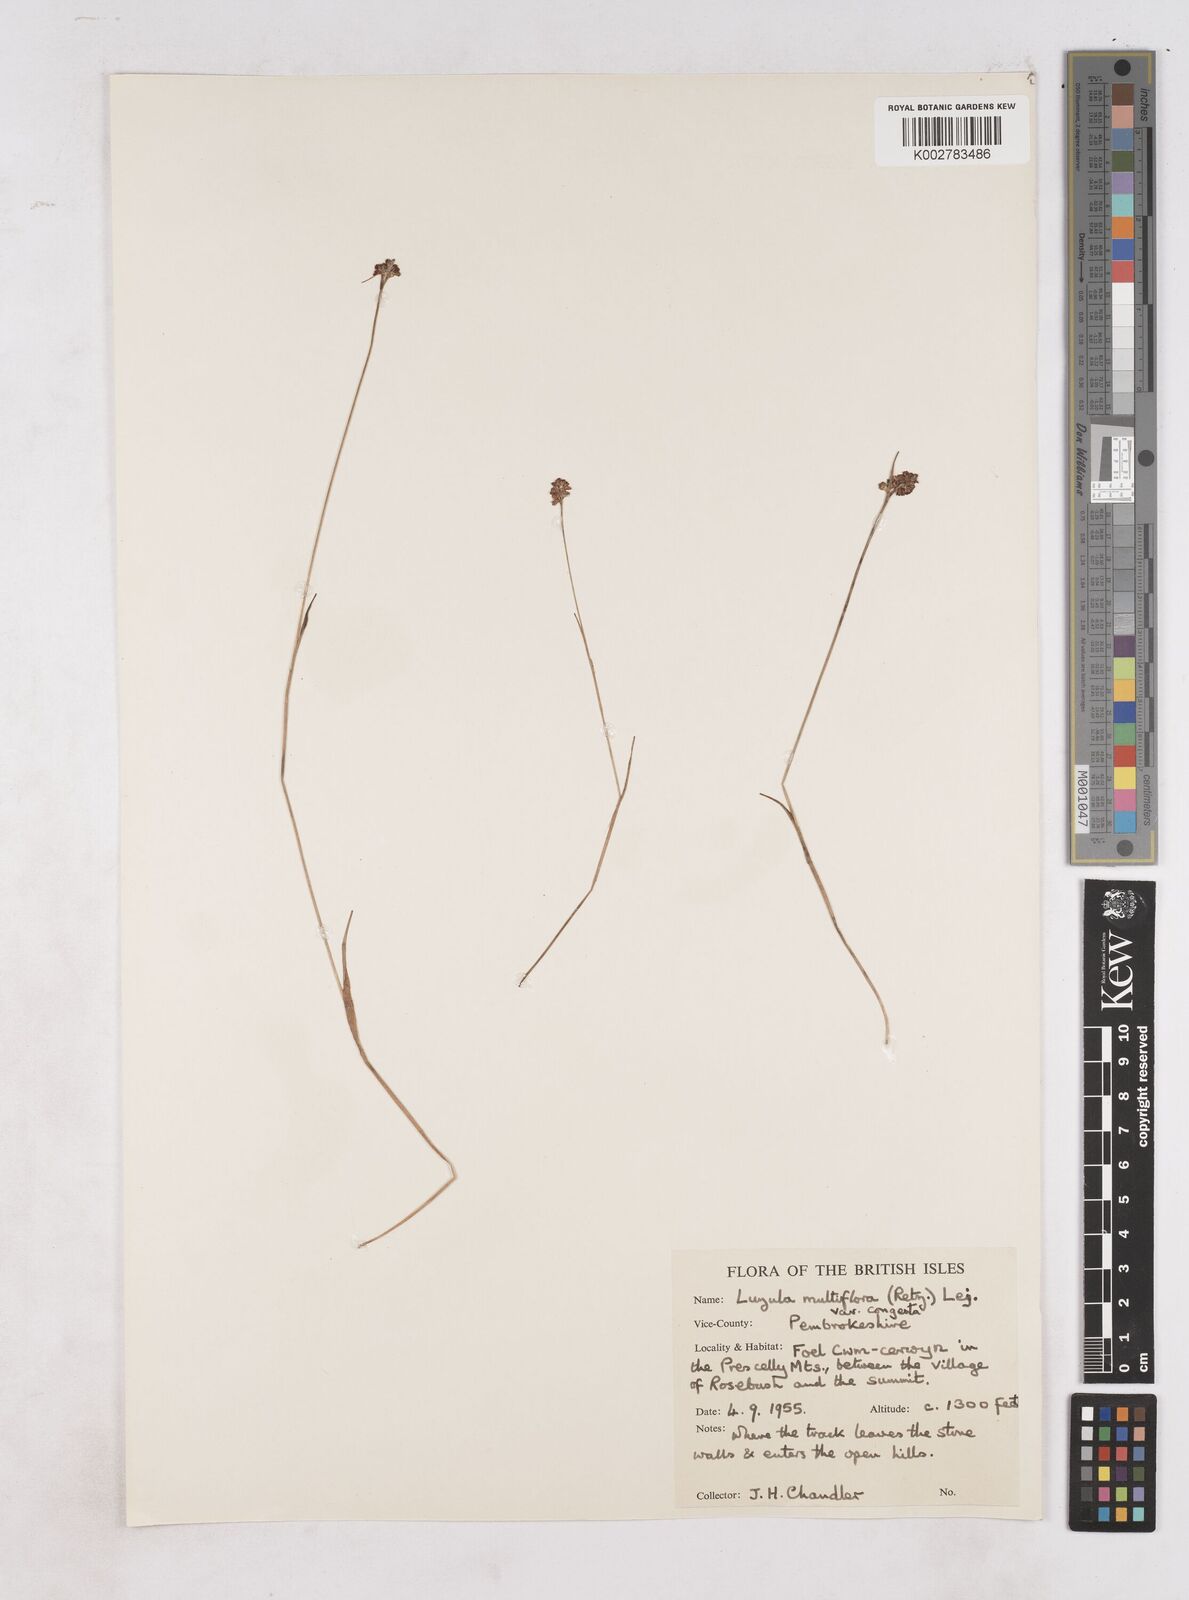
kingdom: Plantae
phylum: Tracheophyta
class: Liliopsida
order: Poales
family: Juncaceae
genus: Luzula
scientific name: Luzula campestris
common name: Field wood-rush
